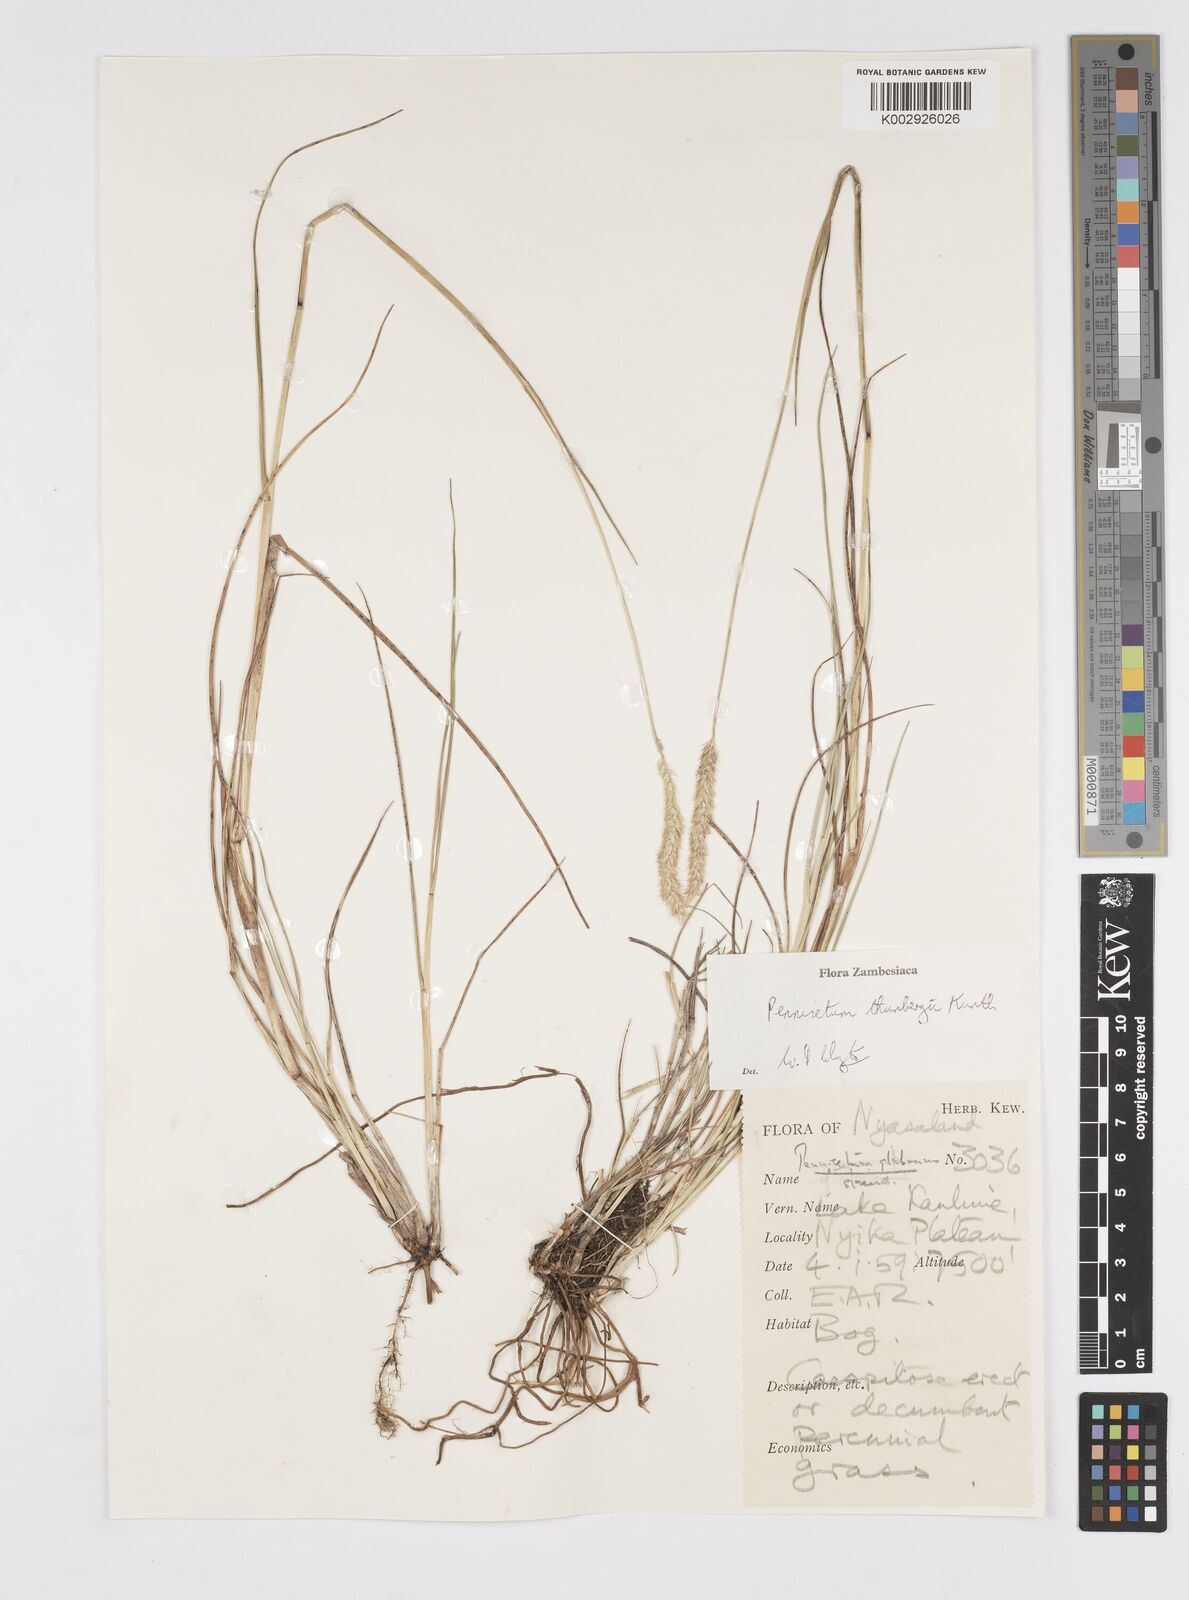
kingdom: Plantae
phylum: Tracheophyta
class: Liliopsida
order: Poales
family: Poaceae
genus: Cenchrus
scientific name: Cenchrus geniculatus
